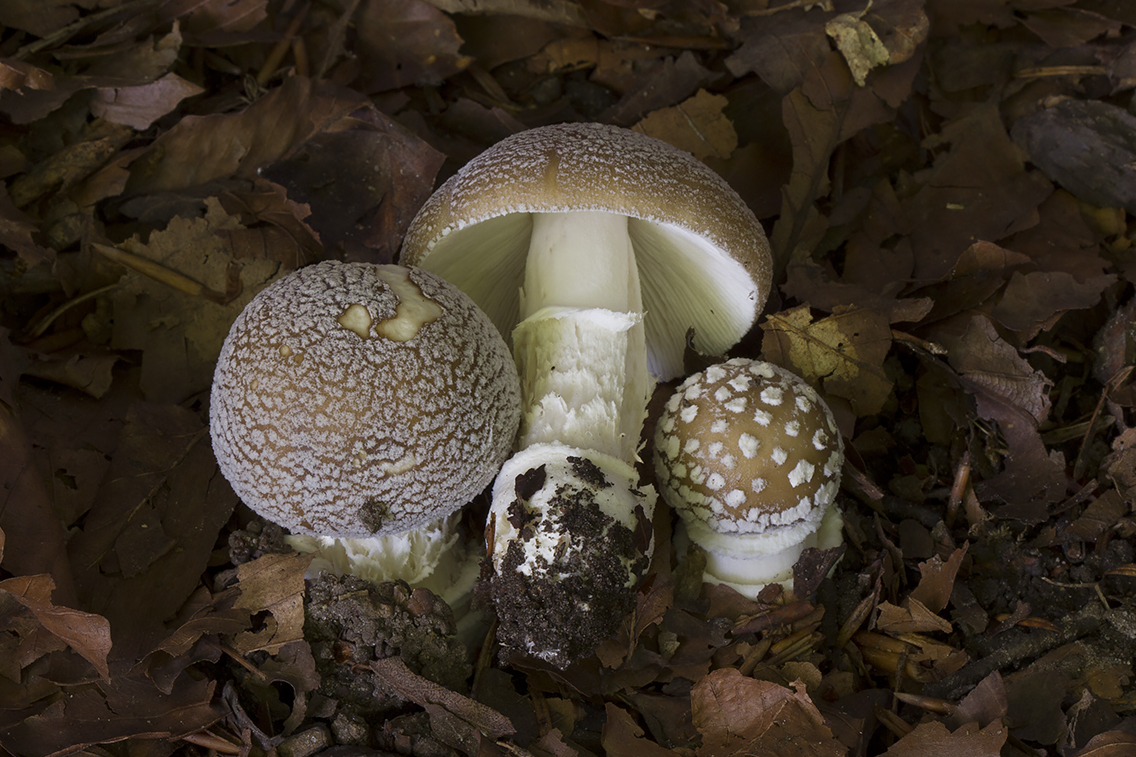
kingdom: Fungi
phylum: Basidiomycota
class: Agaricomycetes
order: Agaricales
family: Amanitaceae
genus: Amanita
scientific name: Amanita pantherina
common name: panter-fluesvamp
